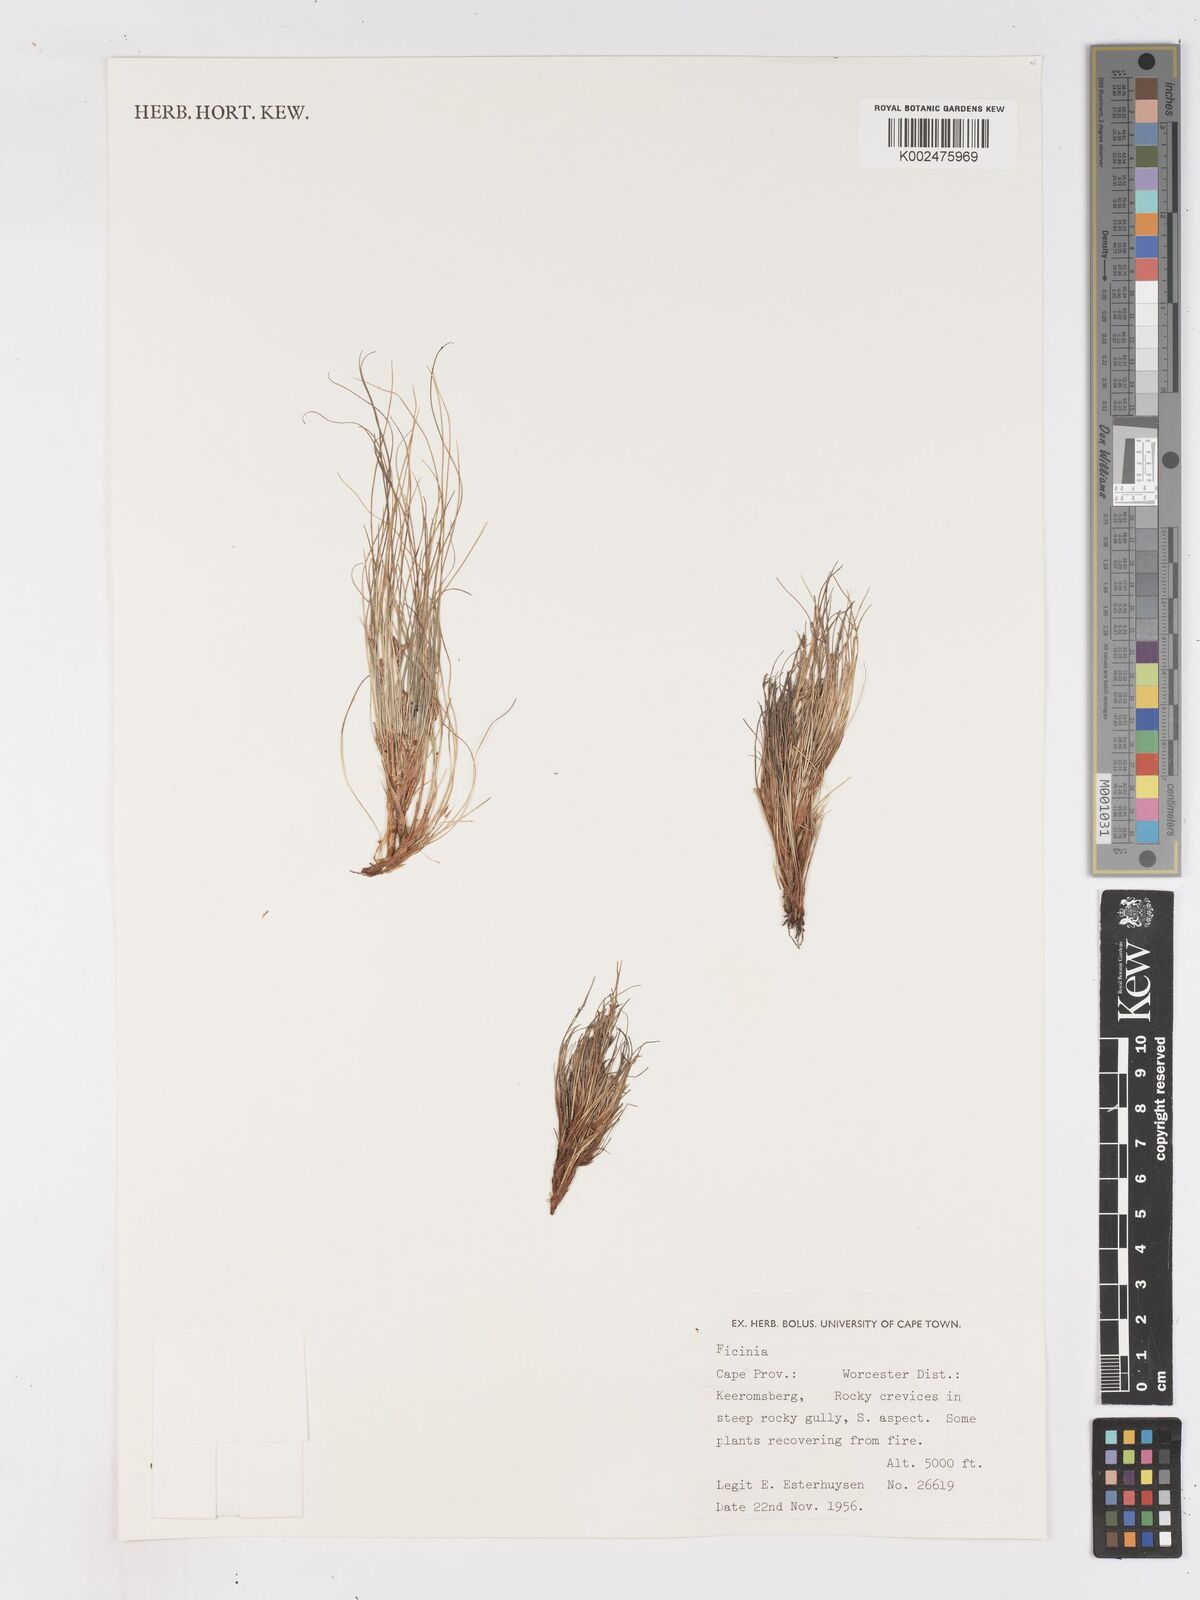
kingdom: Plantae
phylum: Tracheophyta
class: Liliopsida
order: Poales
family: Cyperaceae
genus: Ficinia
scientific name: Ficinia esterhuyseniae
